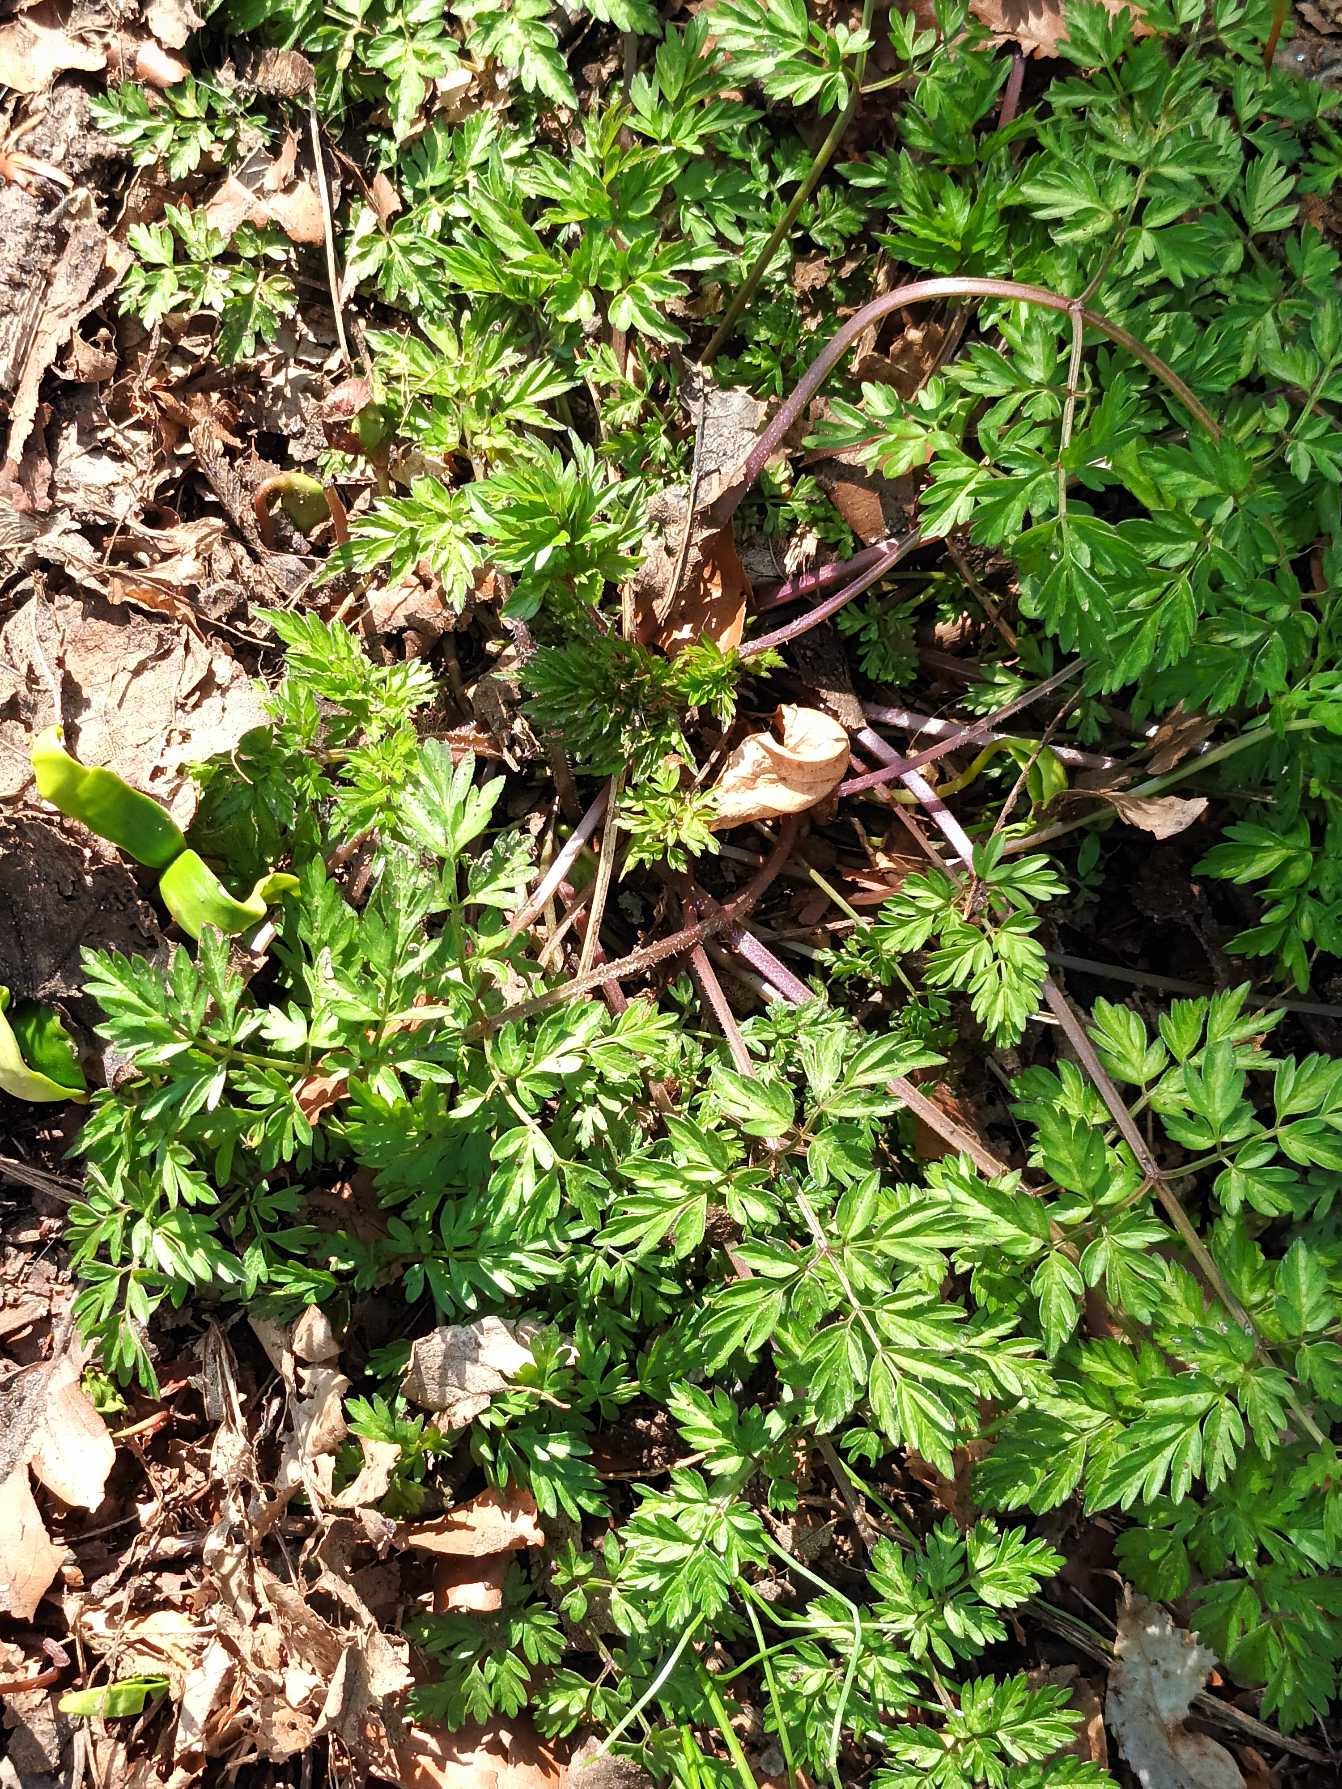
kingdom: Plantae
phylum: Tracheophyta
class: Magnoliopsida
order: Apiales
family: Apiaceae
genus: Anthriscus
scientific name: Anthriscus sylvestris
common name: Vild kørvel
